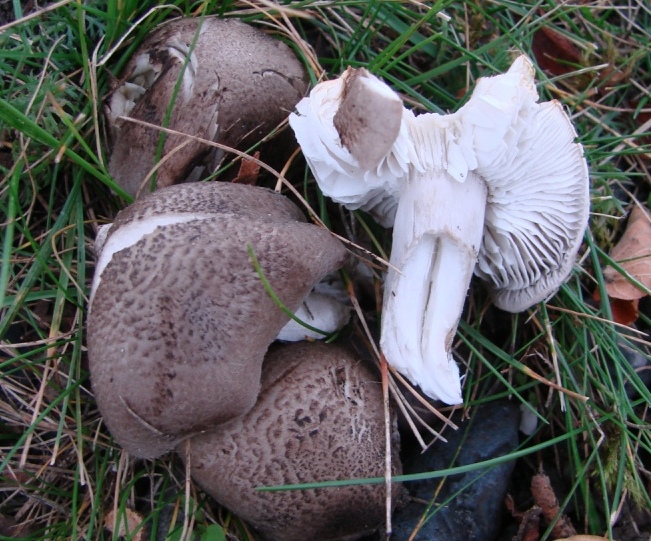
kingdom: Fungi
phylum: Basidiomycota
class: Agaricomycetes
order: Agaricales
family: Tricholomataceae
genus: Tricholoma
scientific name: Tricholoma scalpturatum
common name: gulplettet ridderhat
